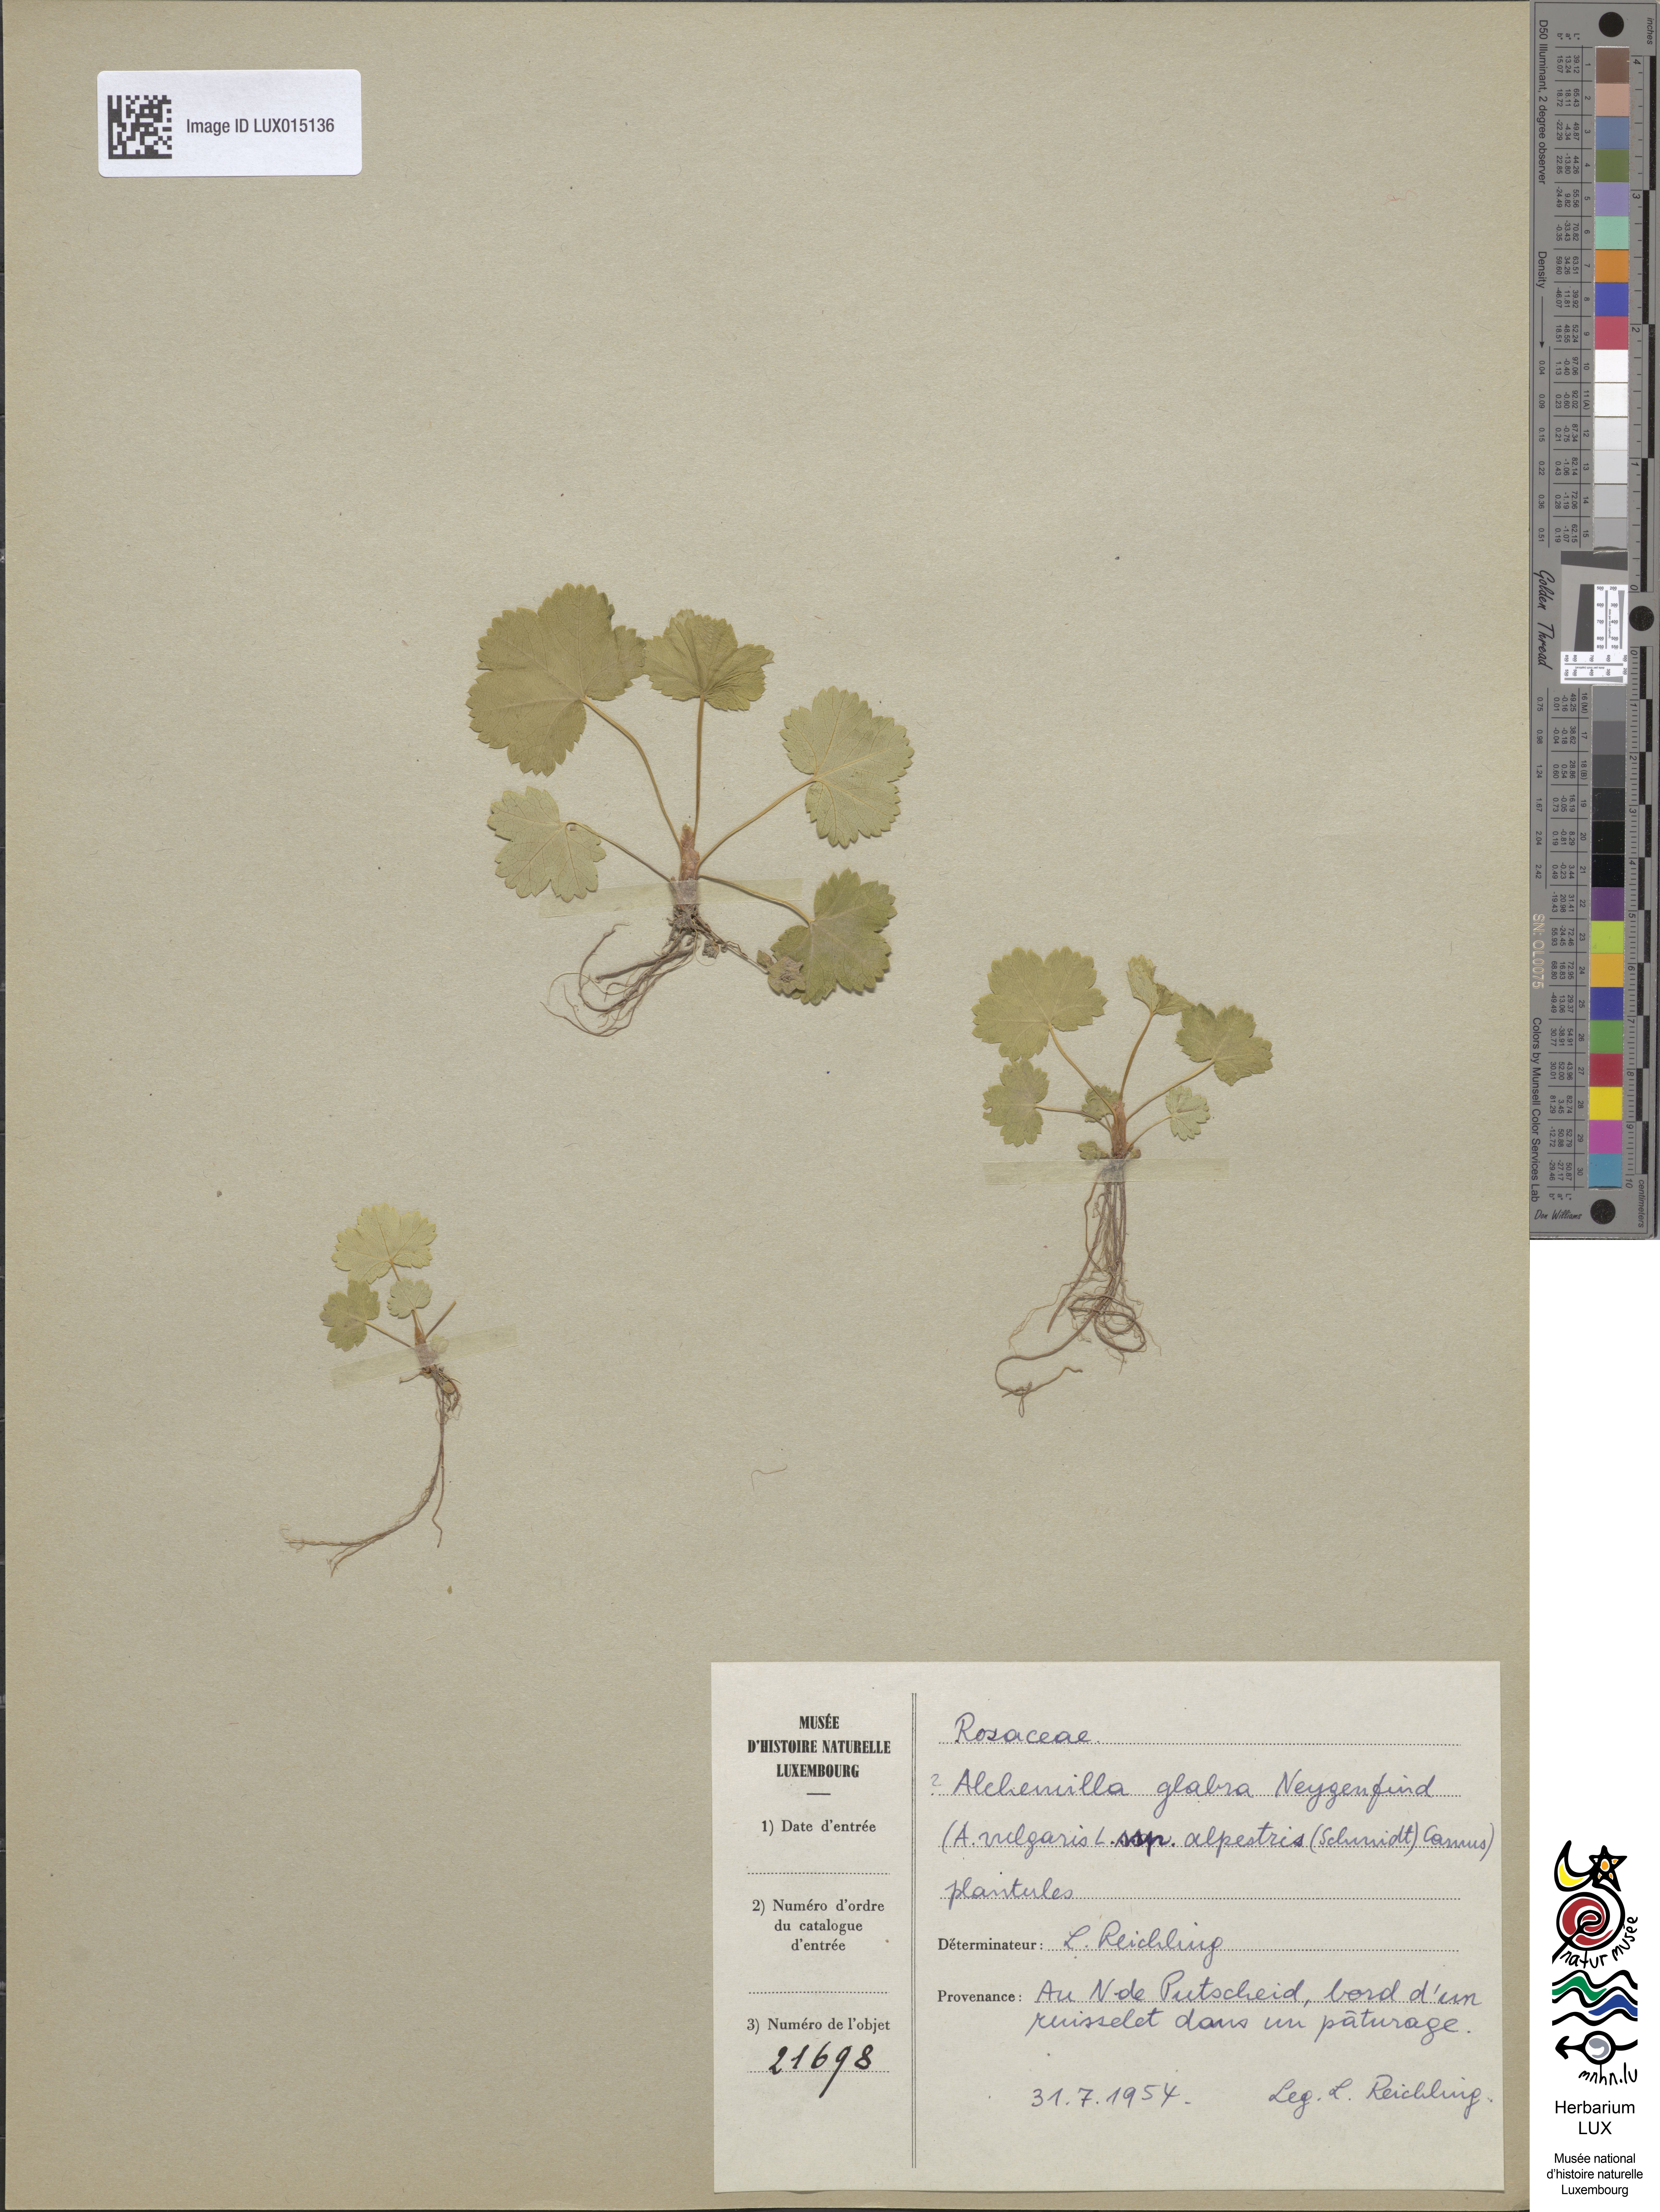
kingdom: Plantae
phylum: Tracheophyta
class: Magnoliopsida
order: Rosales
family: Rosaceae
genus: Alchemilla
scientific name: Alchemilla glabra
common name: Smooth lady's-mantle
